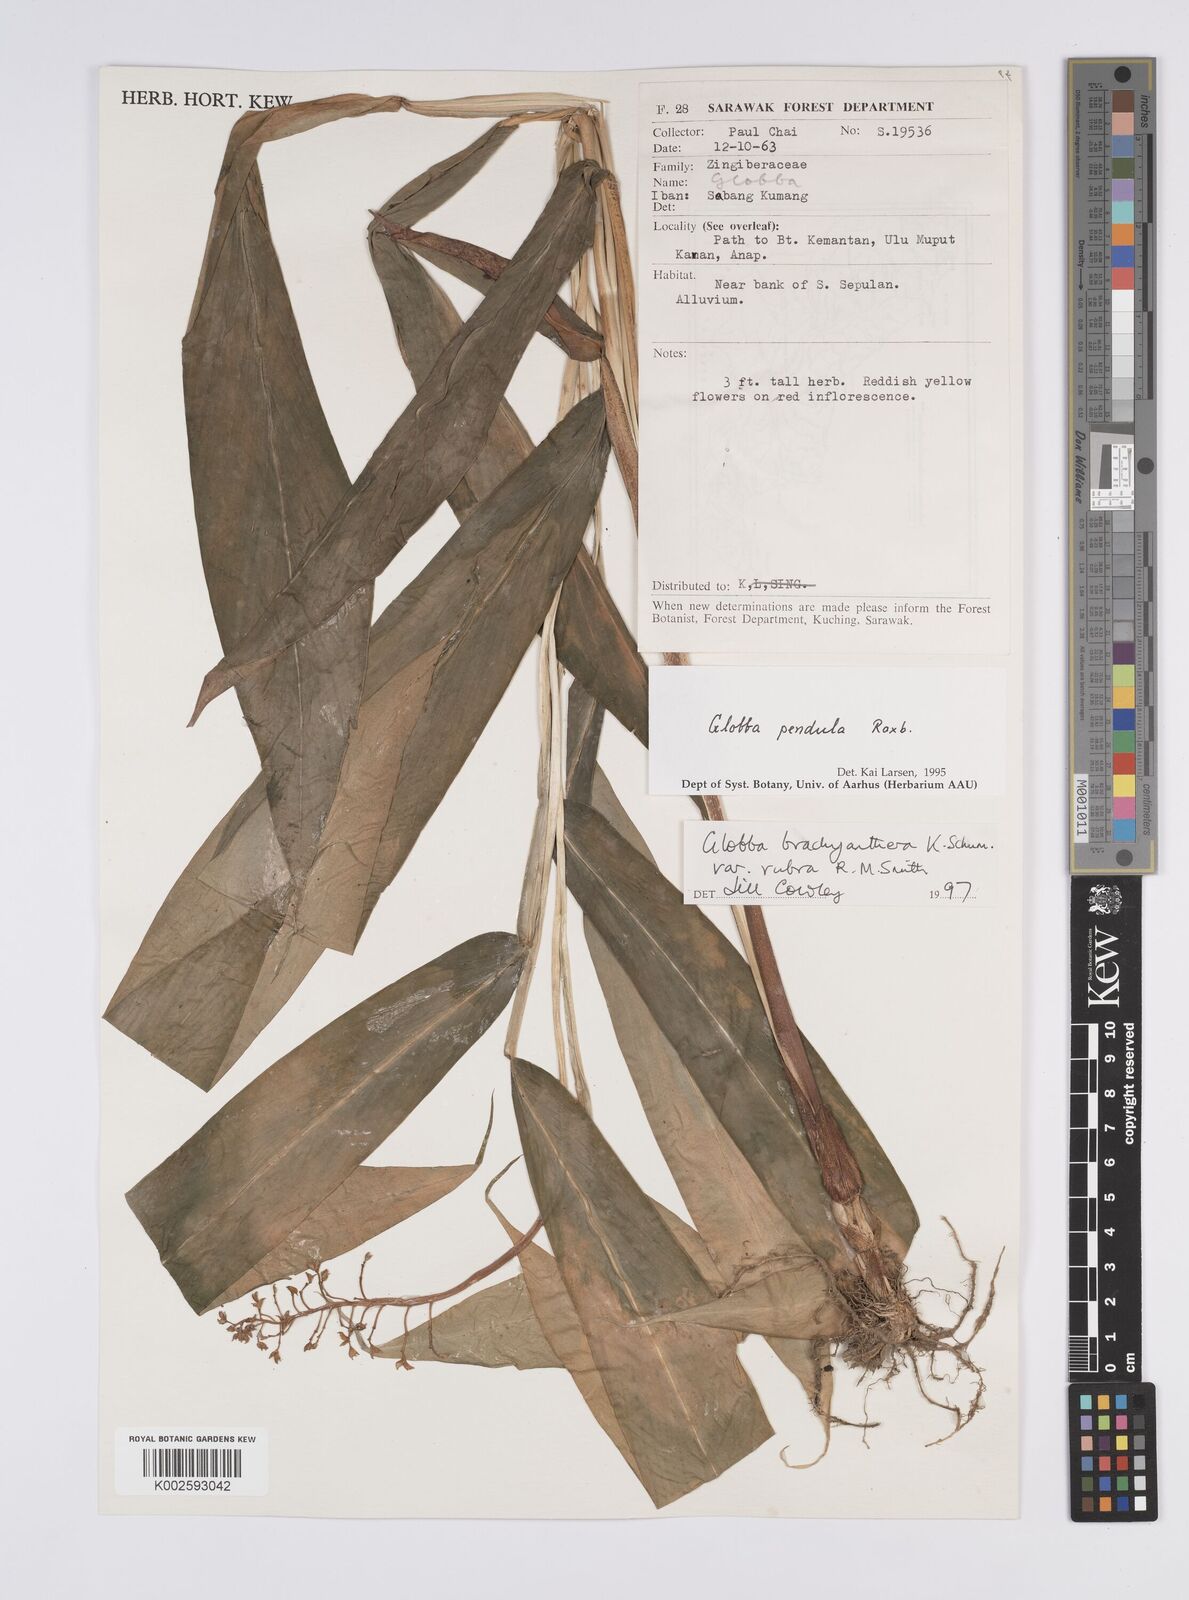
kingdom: Plantae
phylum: Tracheophyta
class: Liliopsida
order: Zingiberales
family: Zingiberaceae
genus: Globba
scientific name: Globba brachyanthera
